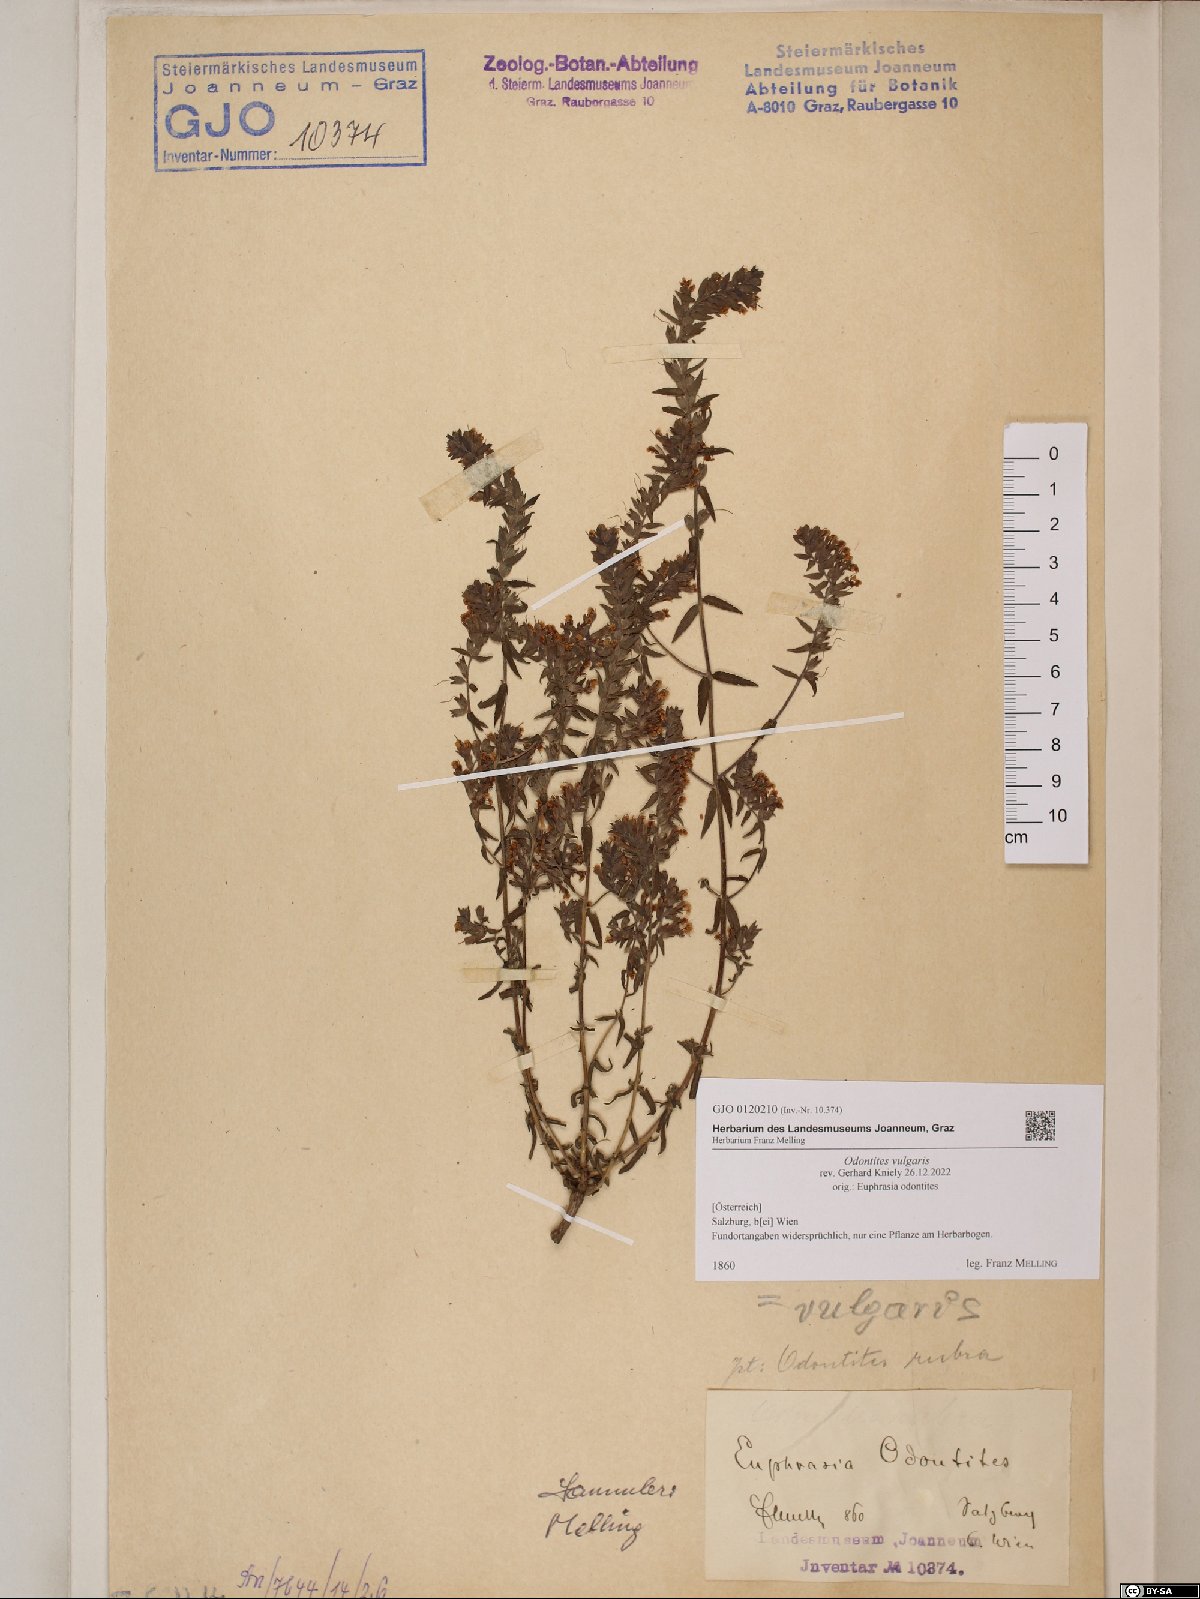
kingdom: Plantae
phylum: Tracheophyta
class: Magnoliopsida
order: Lamiales
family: Orobanchaceae
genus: Odontites
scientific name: Odontites vulgaris
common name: Broomrape
